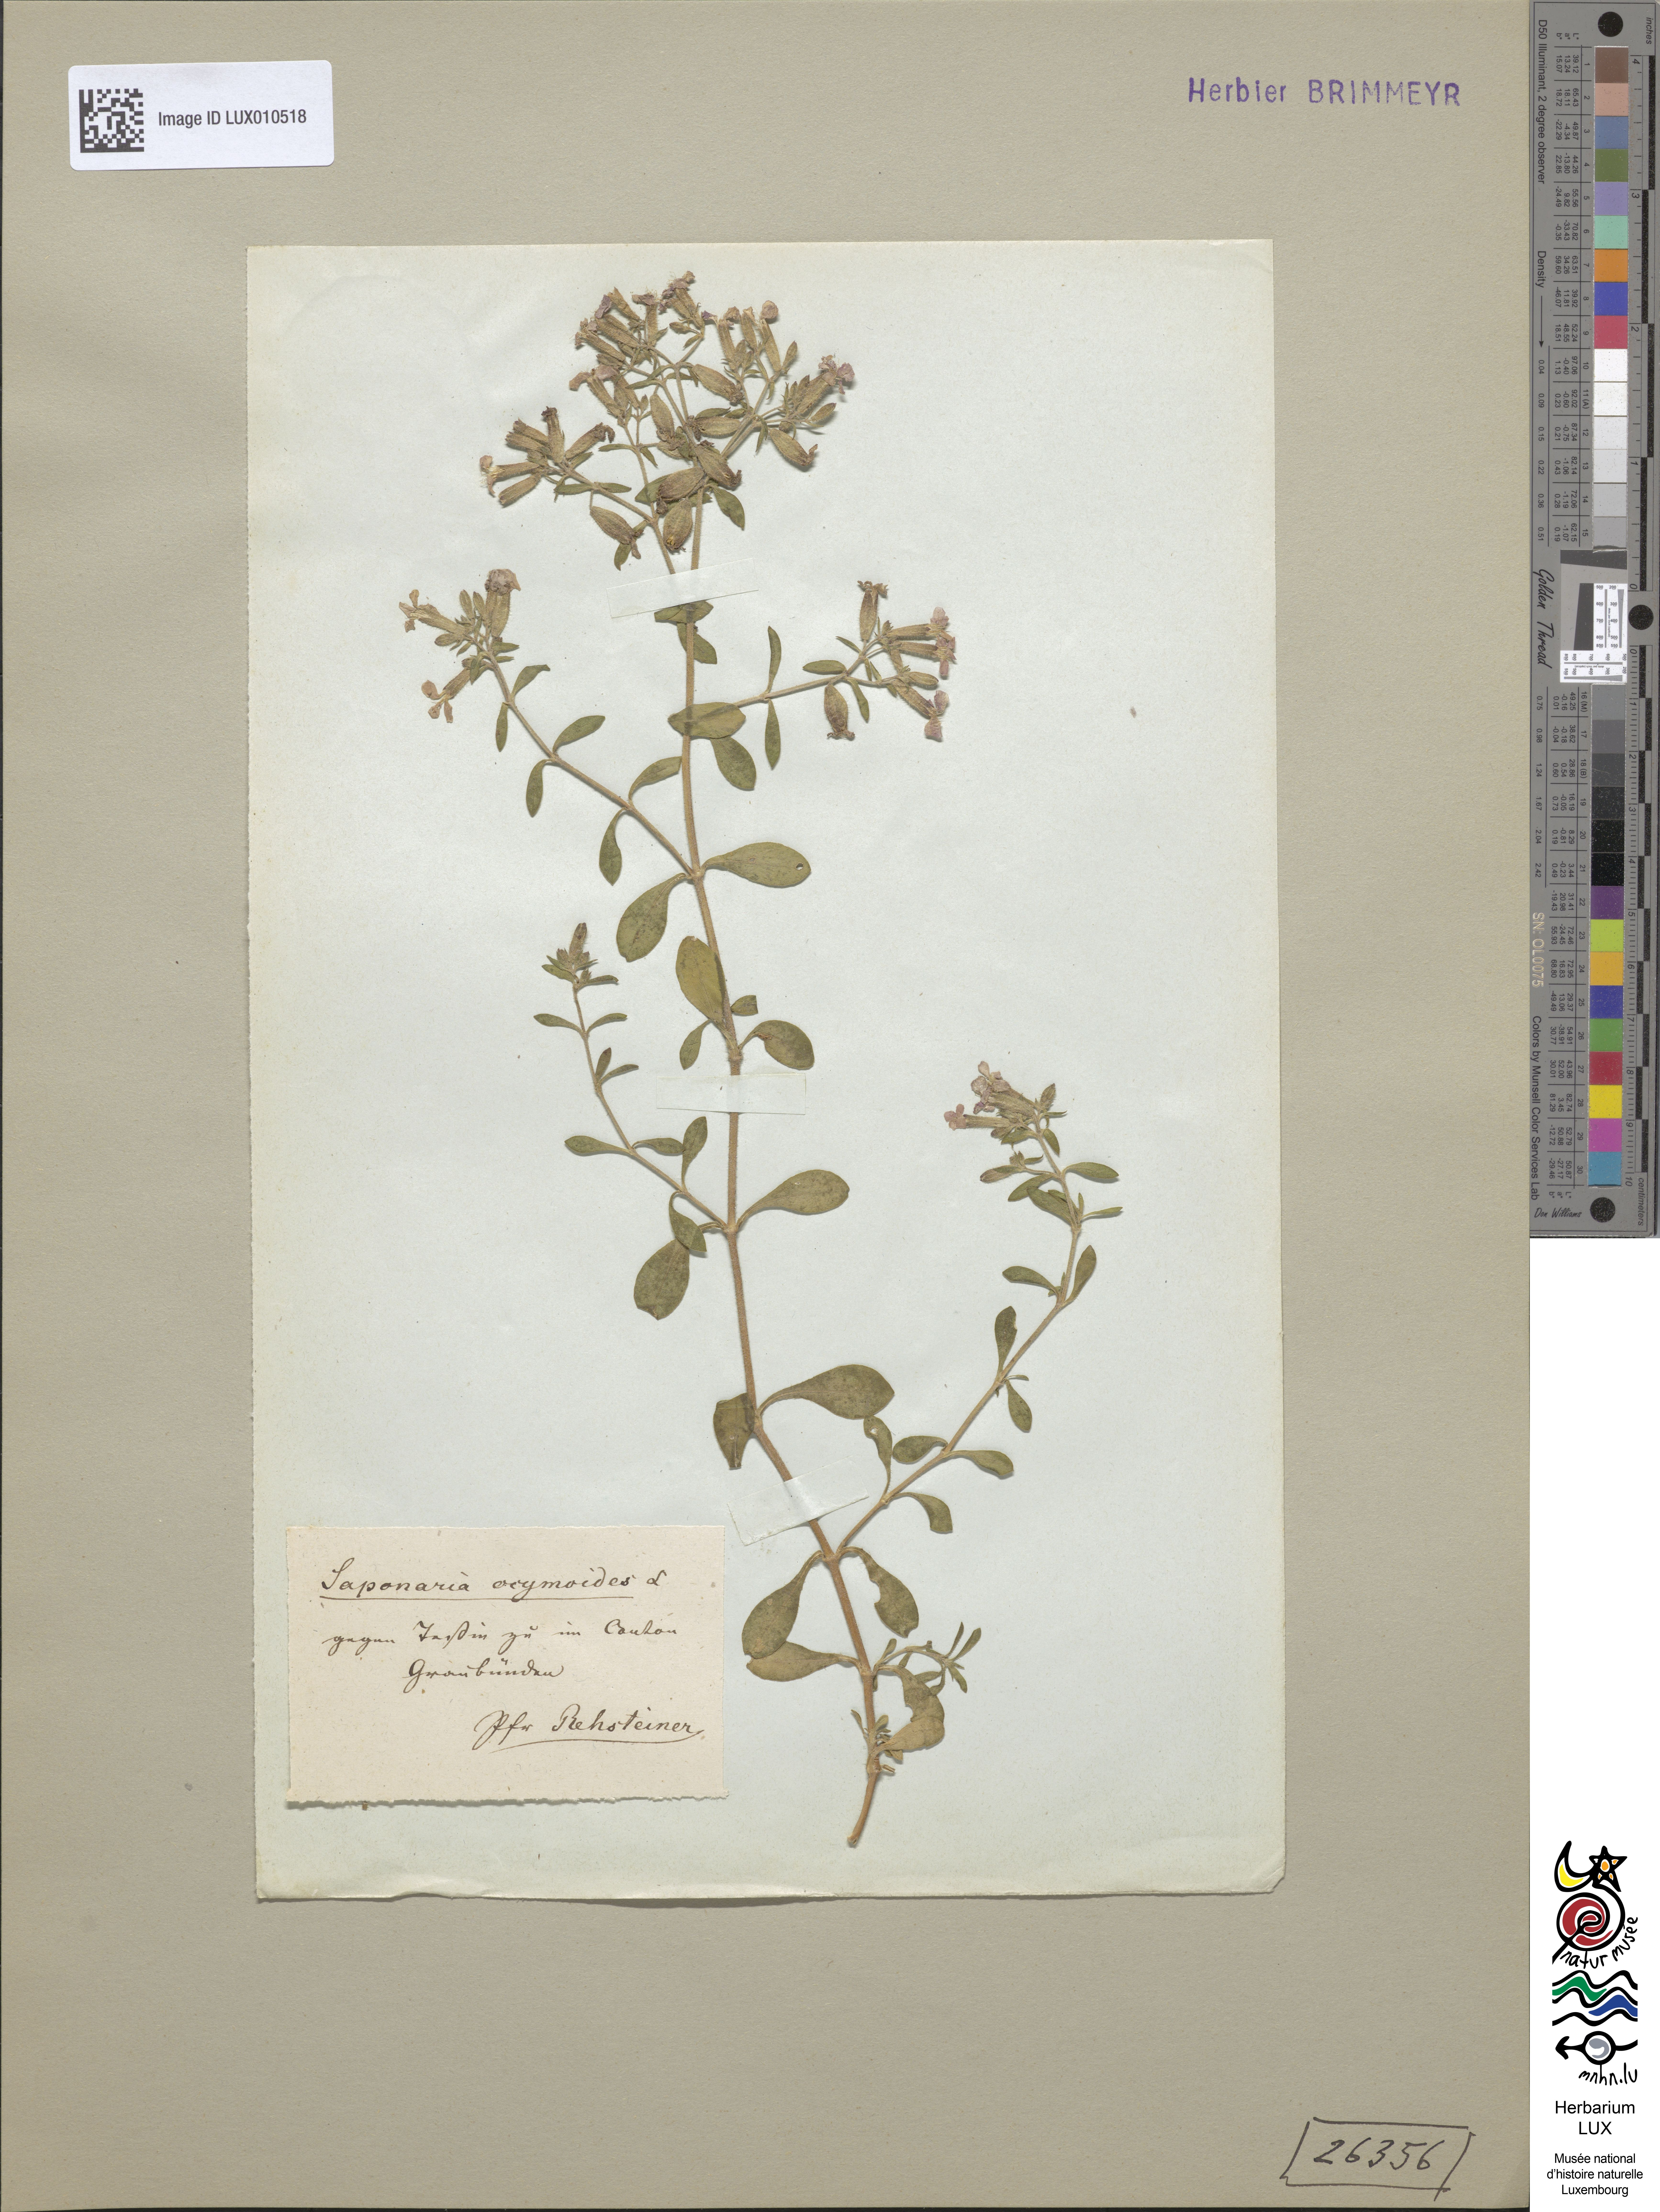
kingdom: Plantae
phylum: Tracheophyta
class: Magnoliopsida
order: Caryophyllales
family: Caryophyllaceae
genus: Saponaria
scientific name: Saponaria ocymoides
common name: Rock soapwort
